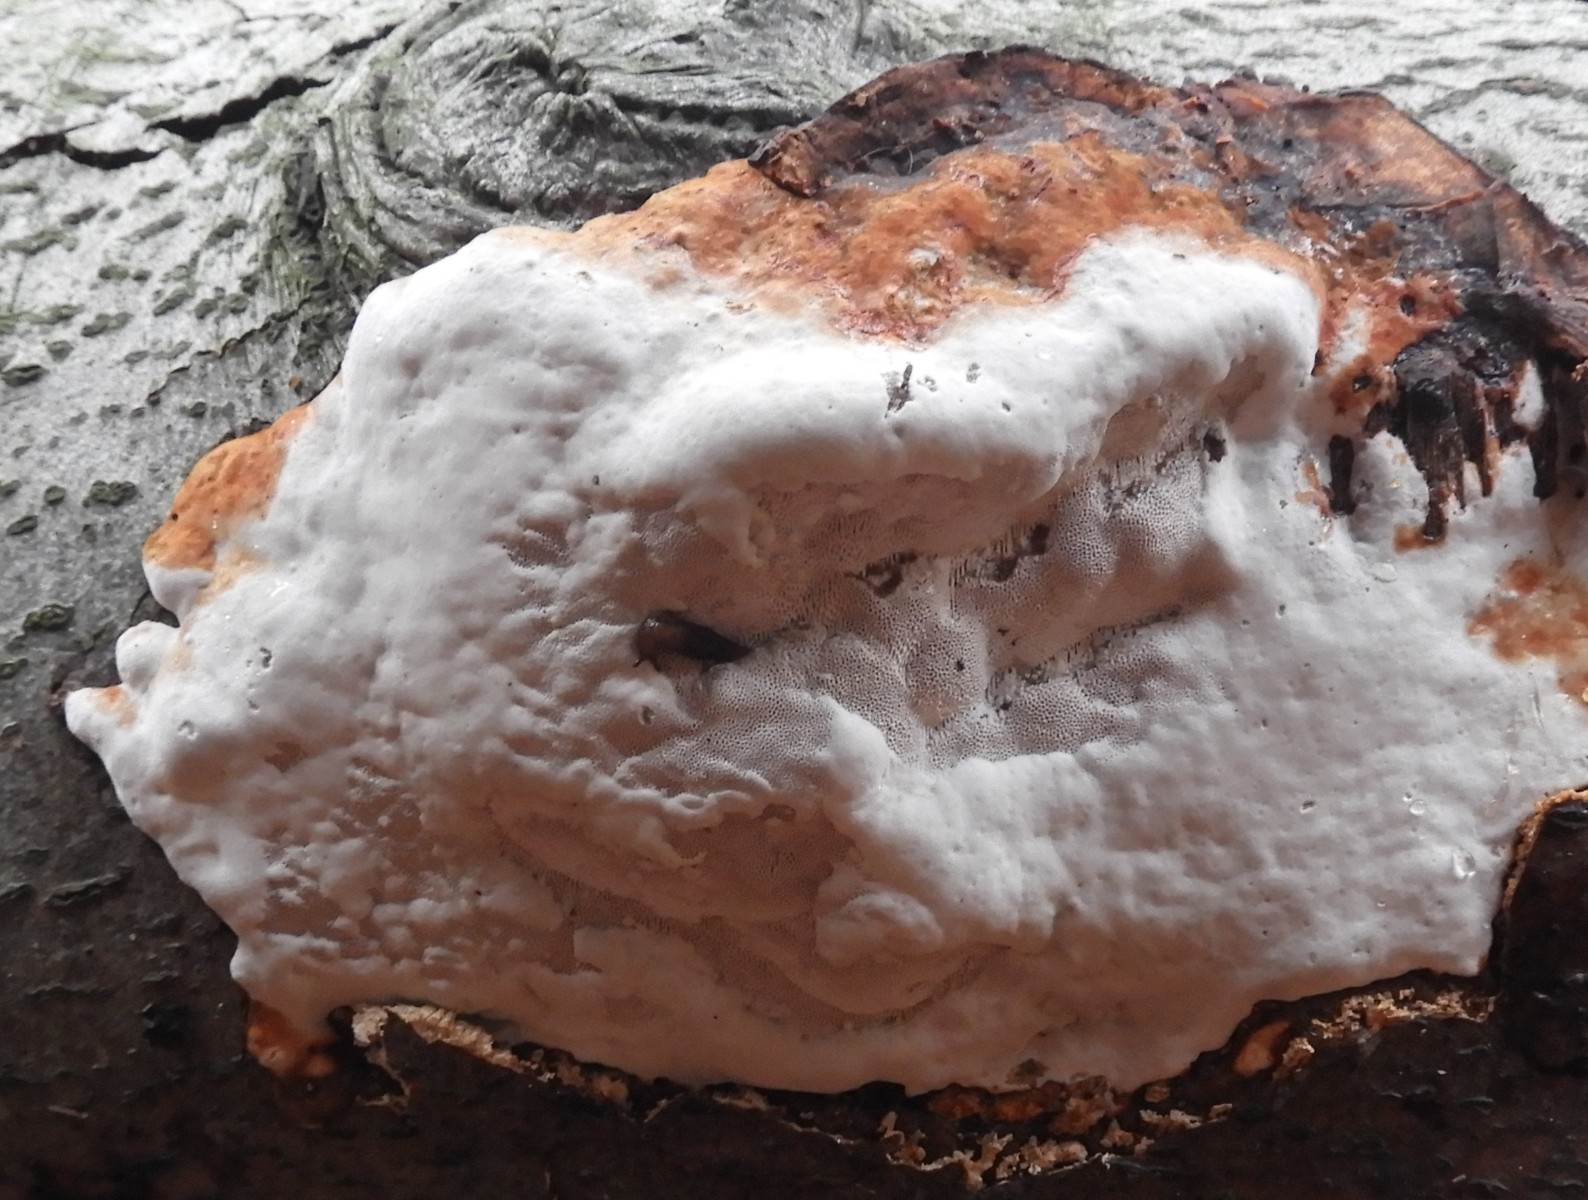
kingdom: Fungi
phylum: Basidiomycota
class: Agaricomycetes
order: Polyporales
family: Polyporaceae
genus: Fomes
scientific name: Fomes fomentarius
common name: tøndersvamp
